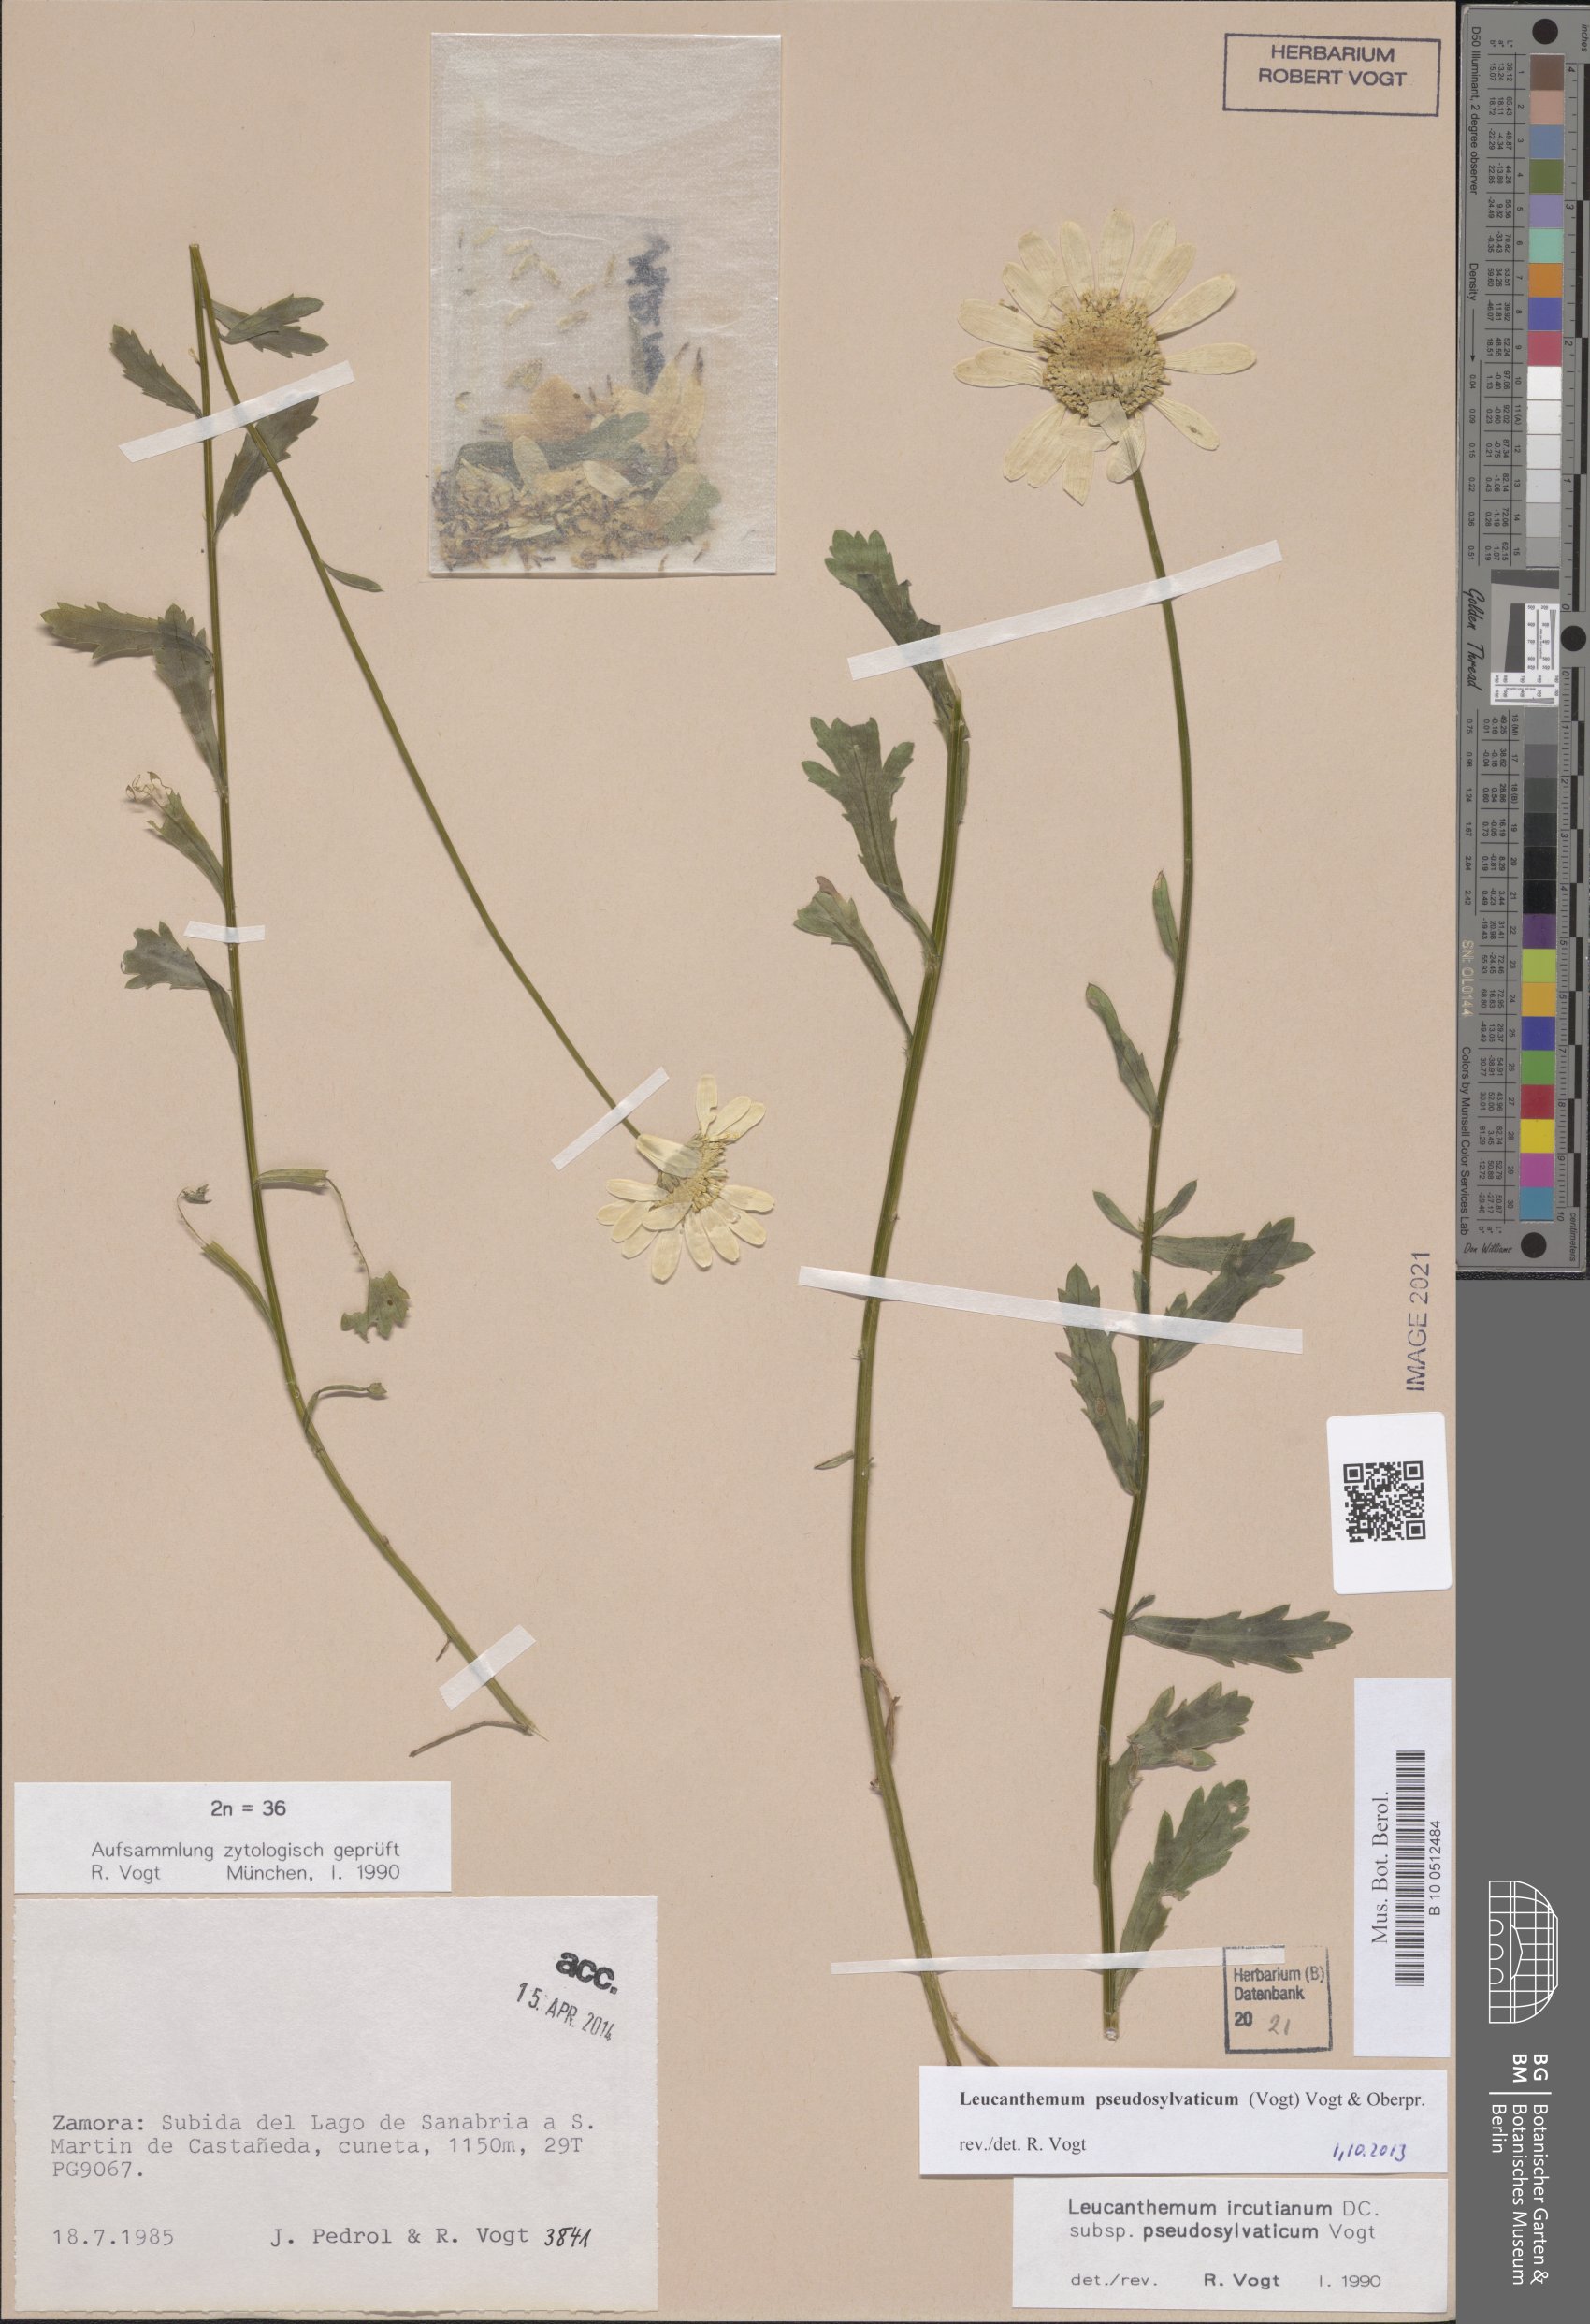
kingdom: Plantae
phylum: Tracheophyta
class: Magnoliopsida
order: Asterales
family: Asteraceae
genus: Leucanthemum
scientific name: Leucanthemum pseudosylvaticum
